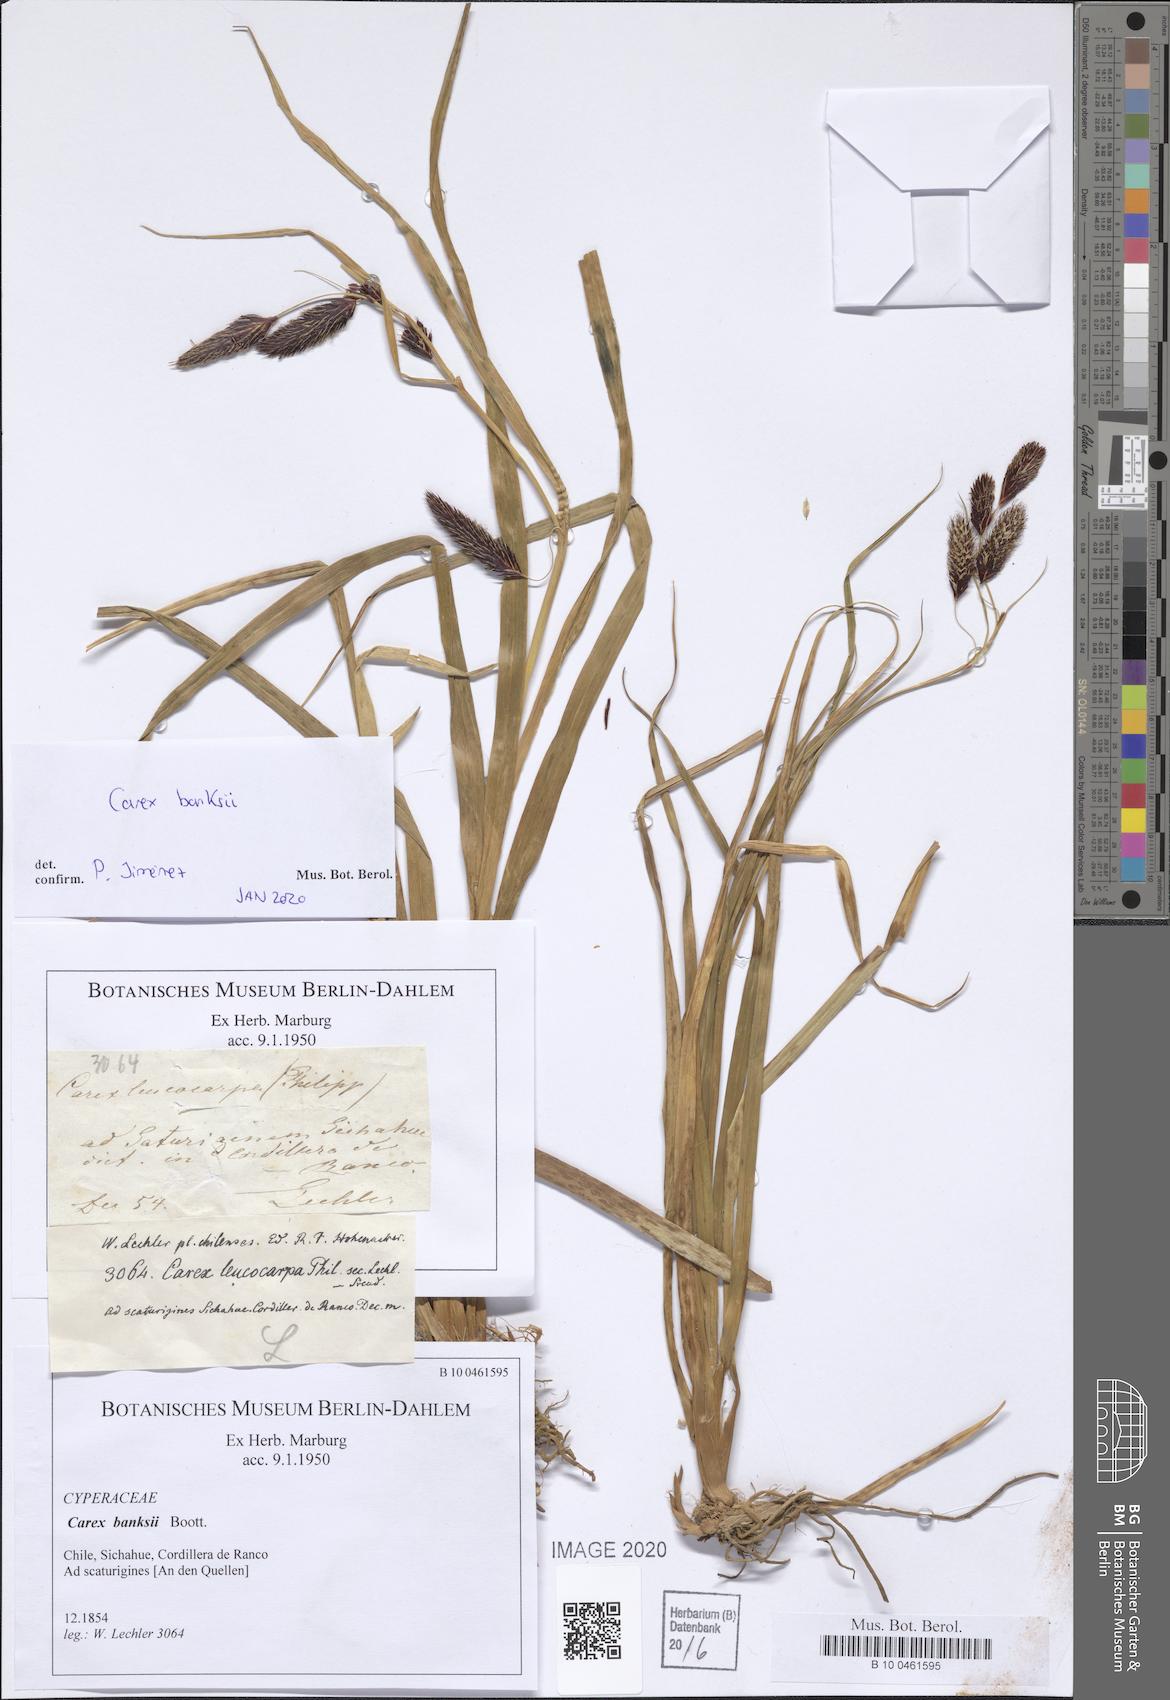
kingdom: Plantae
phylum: Tracheophyta
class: Liliopsida
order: Poales
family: Cyperaceae
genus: Carex
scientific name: Carex banksii
